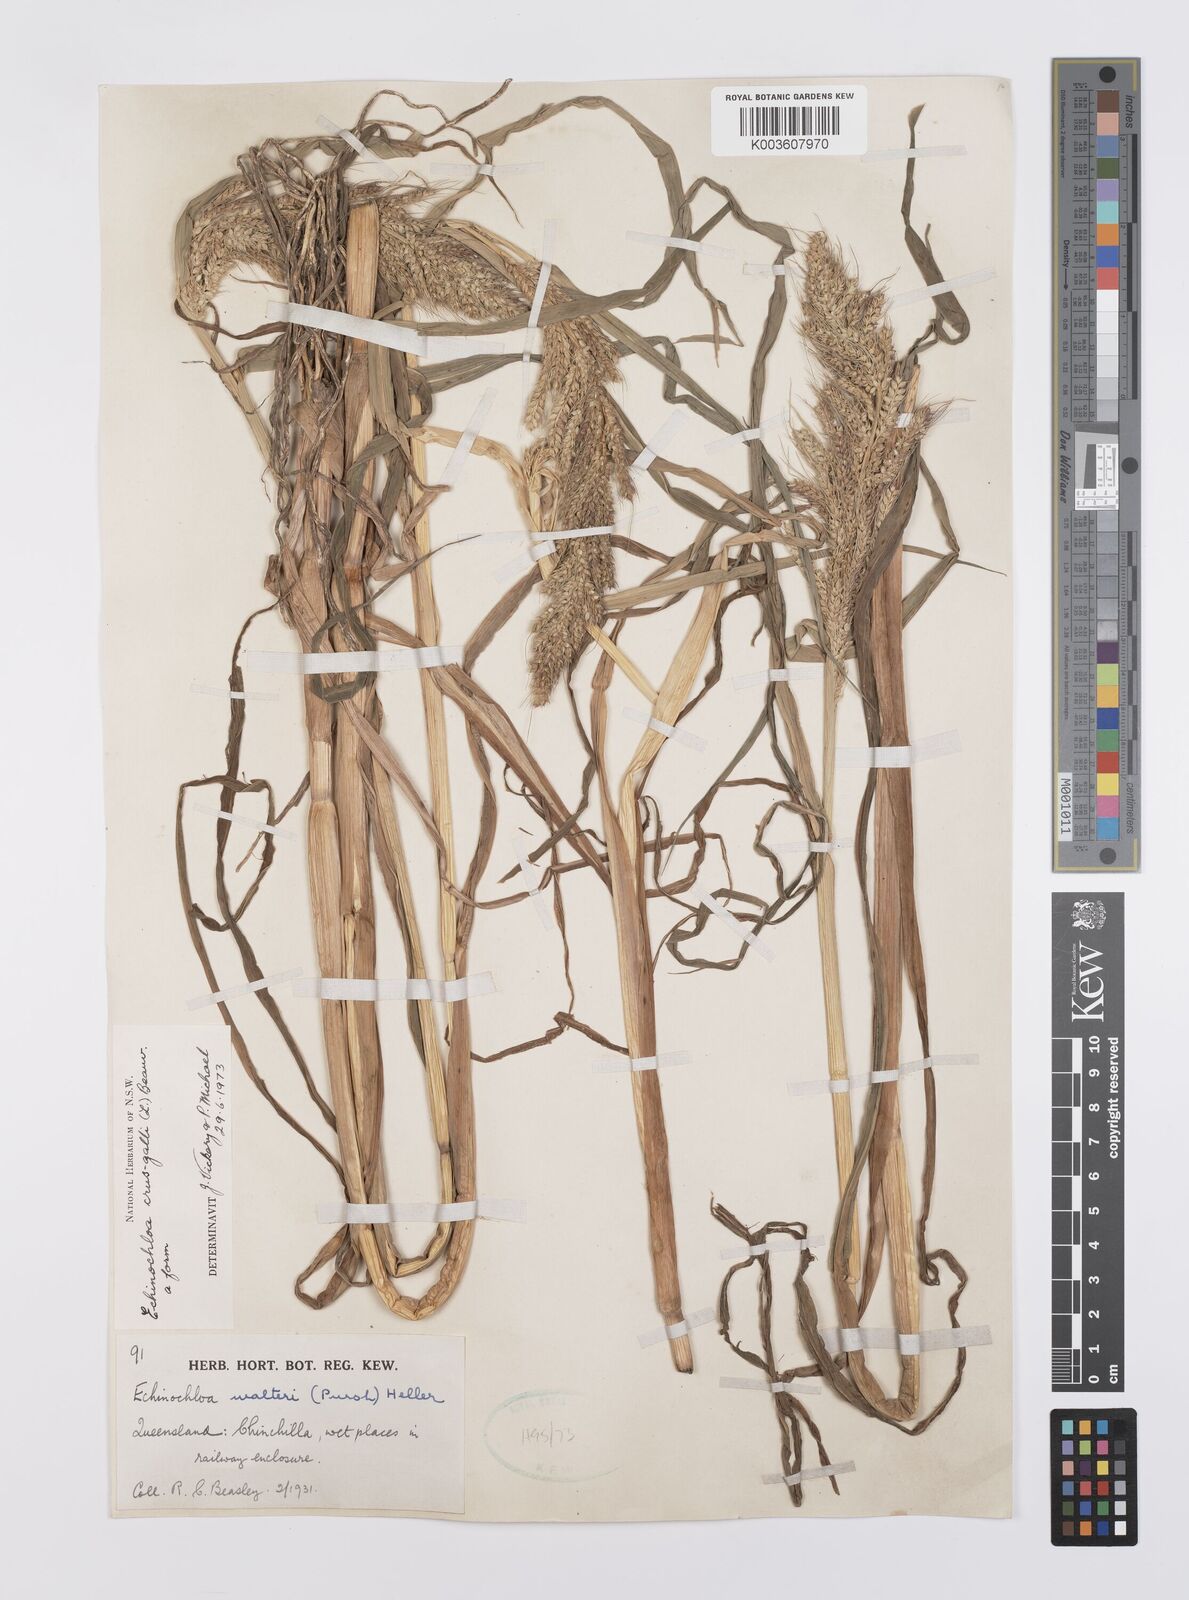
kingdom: Plantae
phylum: Tracheophyta
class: Liliopsida
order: Poales
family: Poaceae
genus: Echinochloa
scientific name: Echinochloa crus-galli
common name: Cockspur
